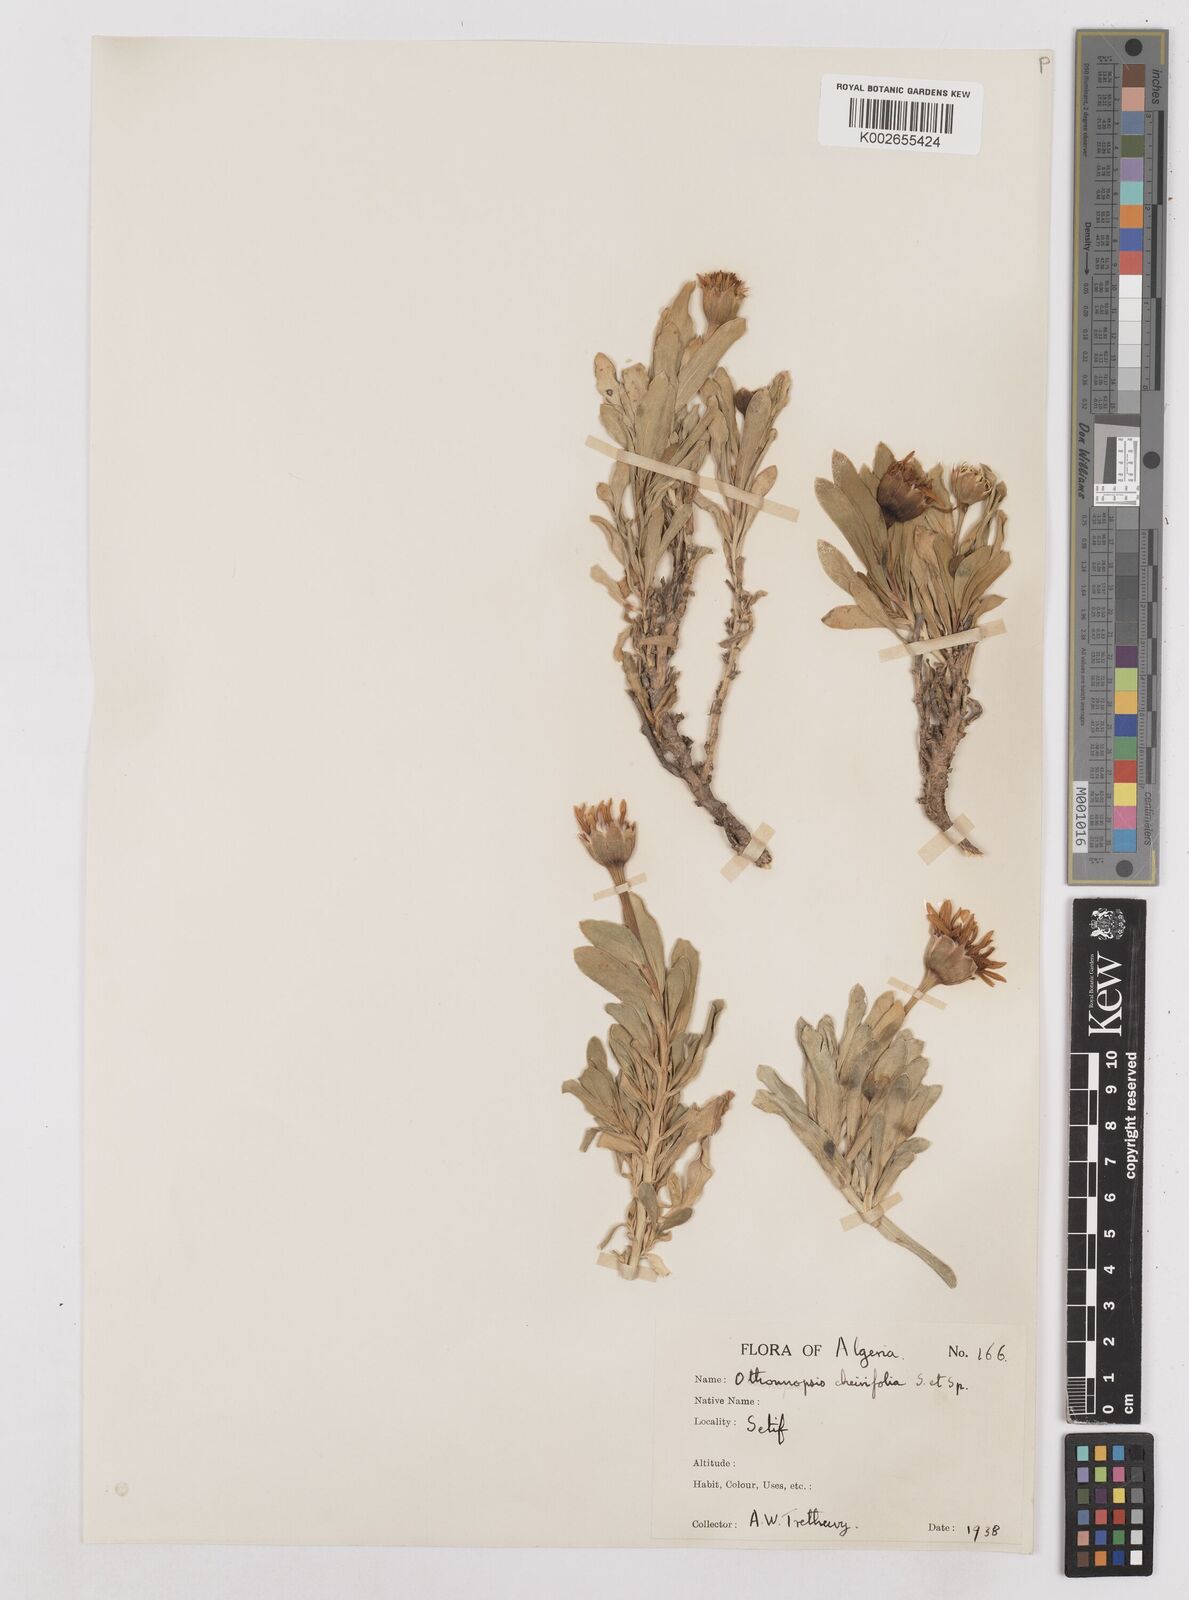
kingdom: Plantae
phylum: Tracheophyta
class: Magnoliopsida
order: Asterales
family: Asteraceae
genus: Hertia
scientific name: Hertia cheirifolia
